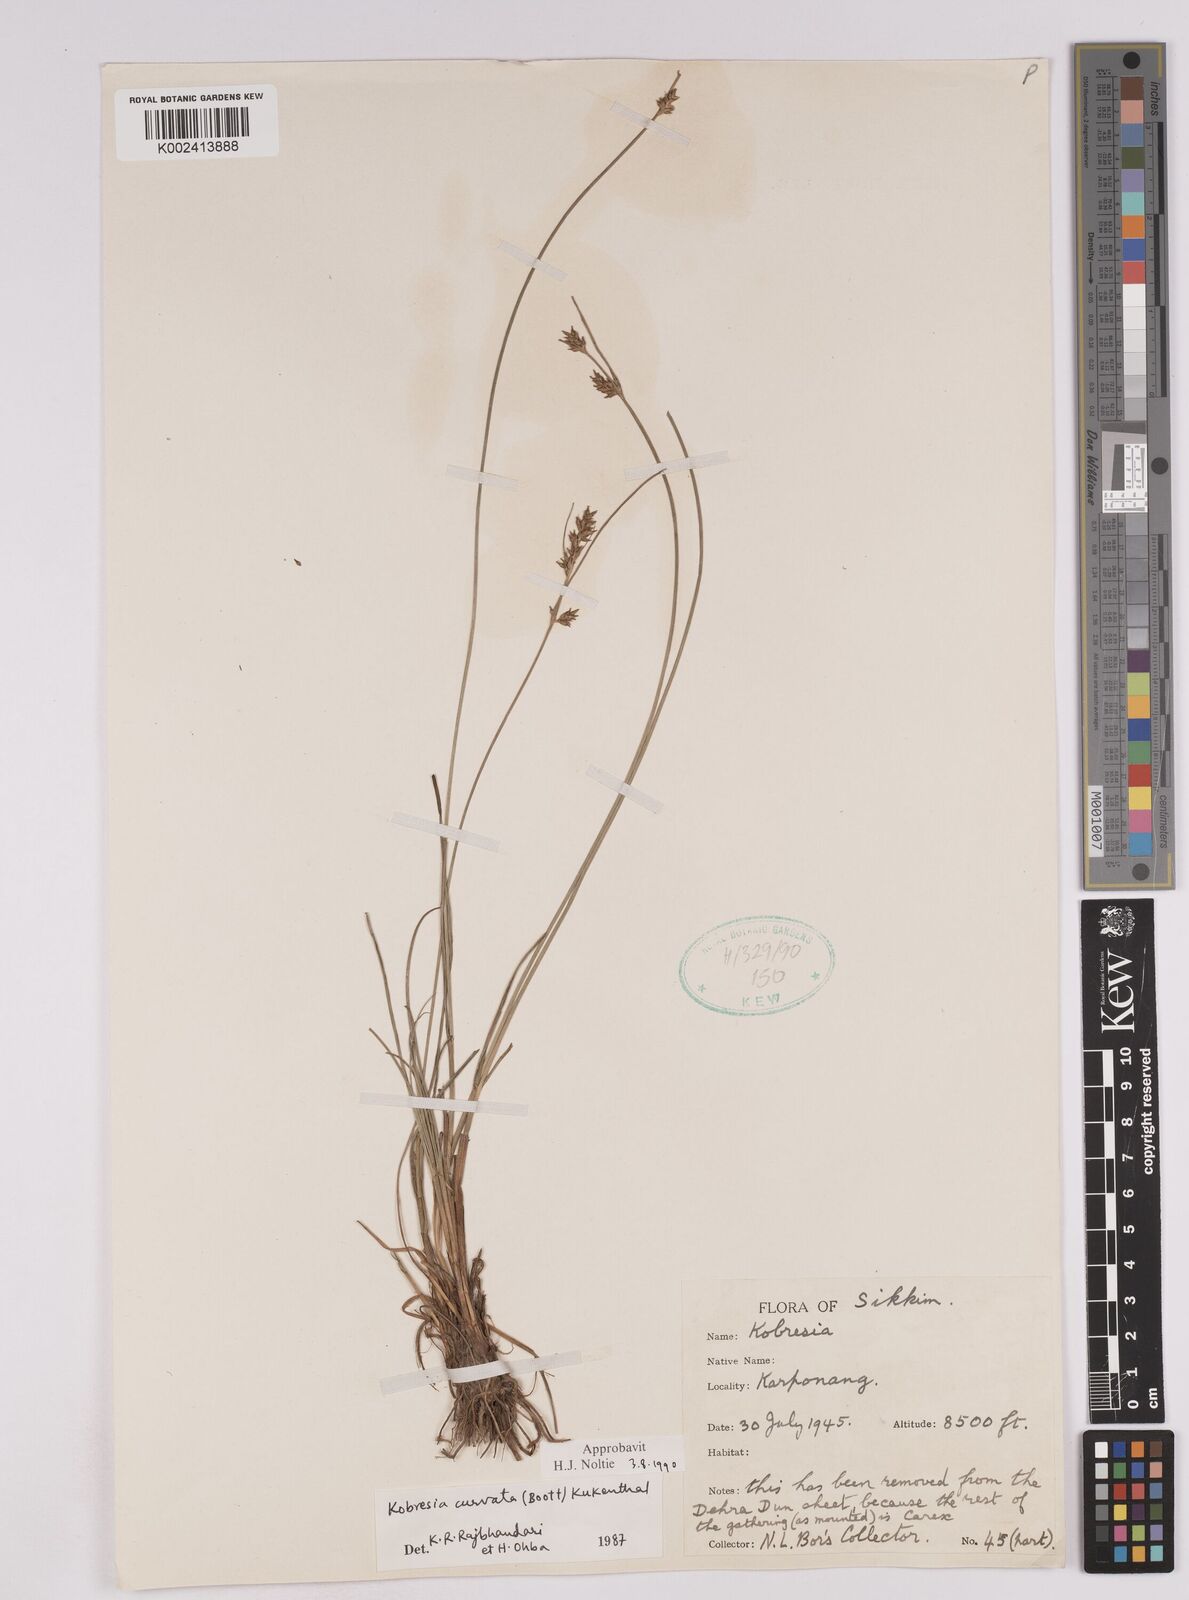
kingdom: Plantae
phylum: Tracheophyta
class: Liliopsida
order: Poales
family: Cyperaceae
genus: Carex
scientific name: Carex bonatiana
